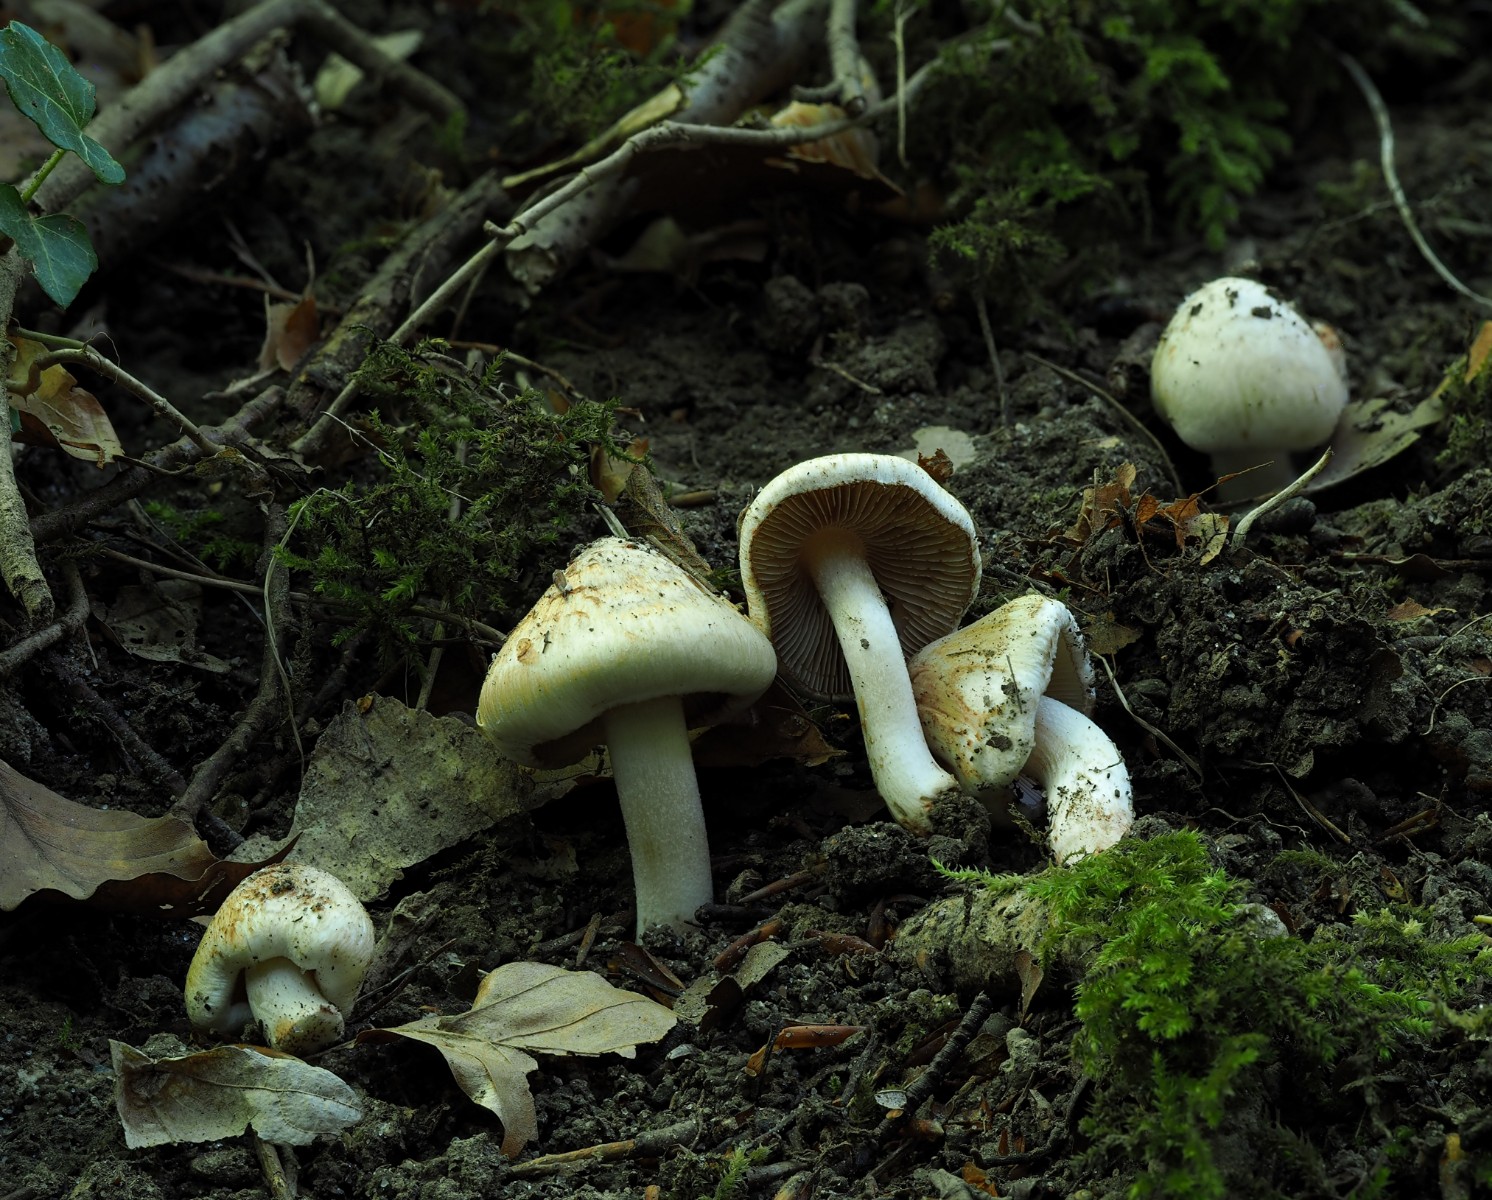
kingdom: Fungi
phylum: Basidiomycota
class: Agaricomycetes
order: Agaricales
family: Inocybaceae
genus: Inocybe
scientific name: Inocybe fraudans
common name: pæreduftende trævlhat
